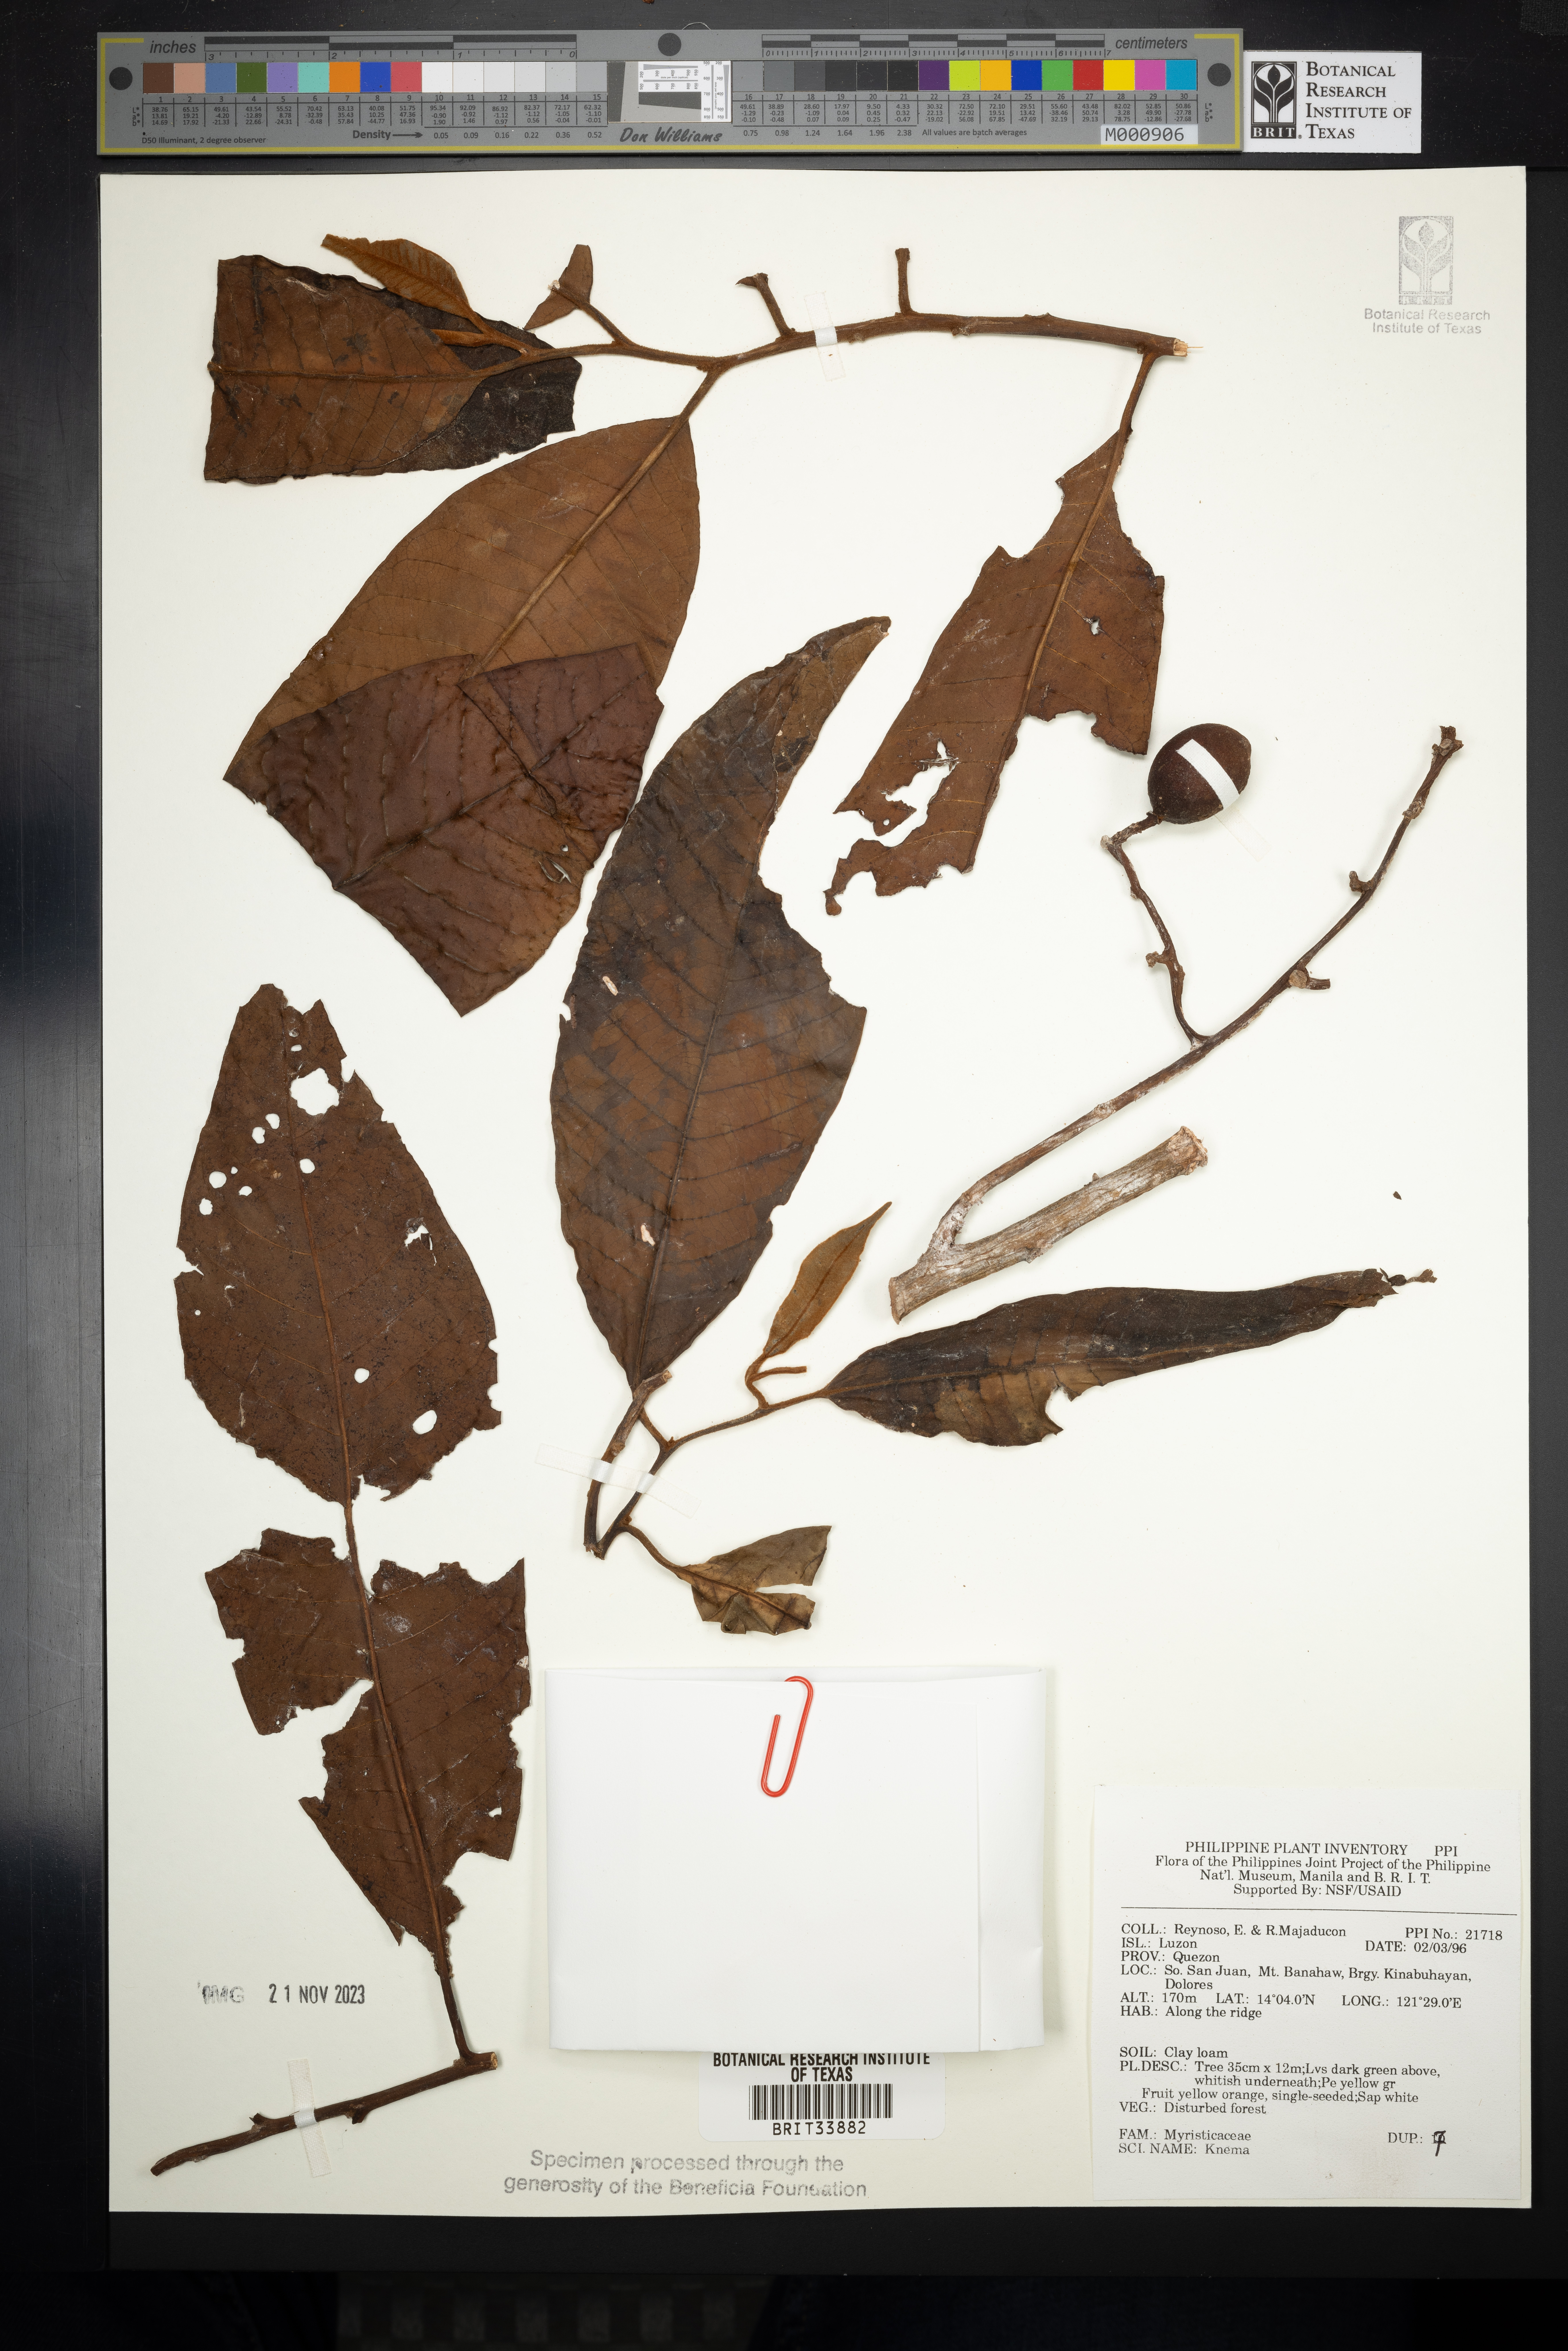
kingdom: Plantae
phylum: Tracheophyta
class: Magnoliopsida
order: Magnoliales
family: Myristicaceae
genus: Knema
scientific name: Knema
